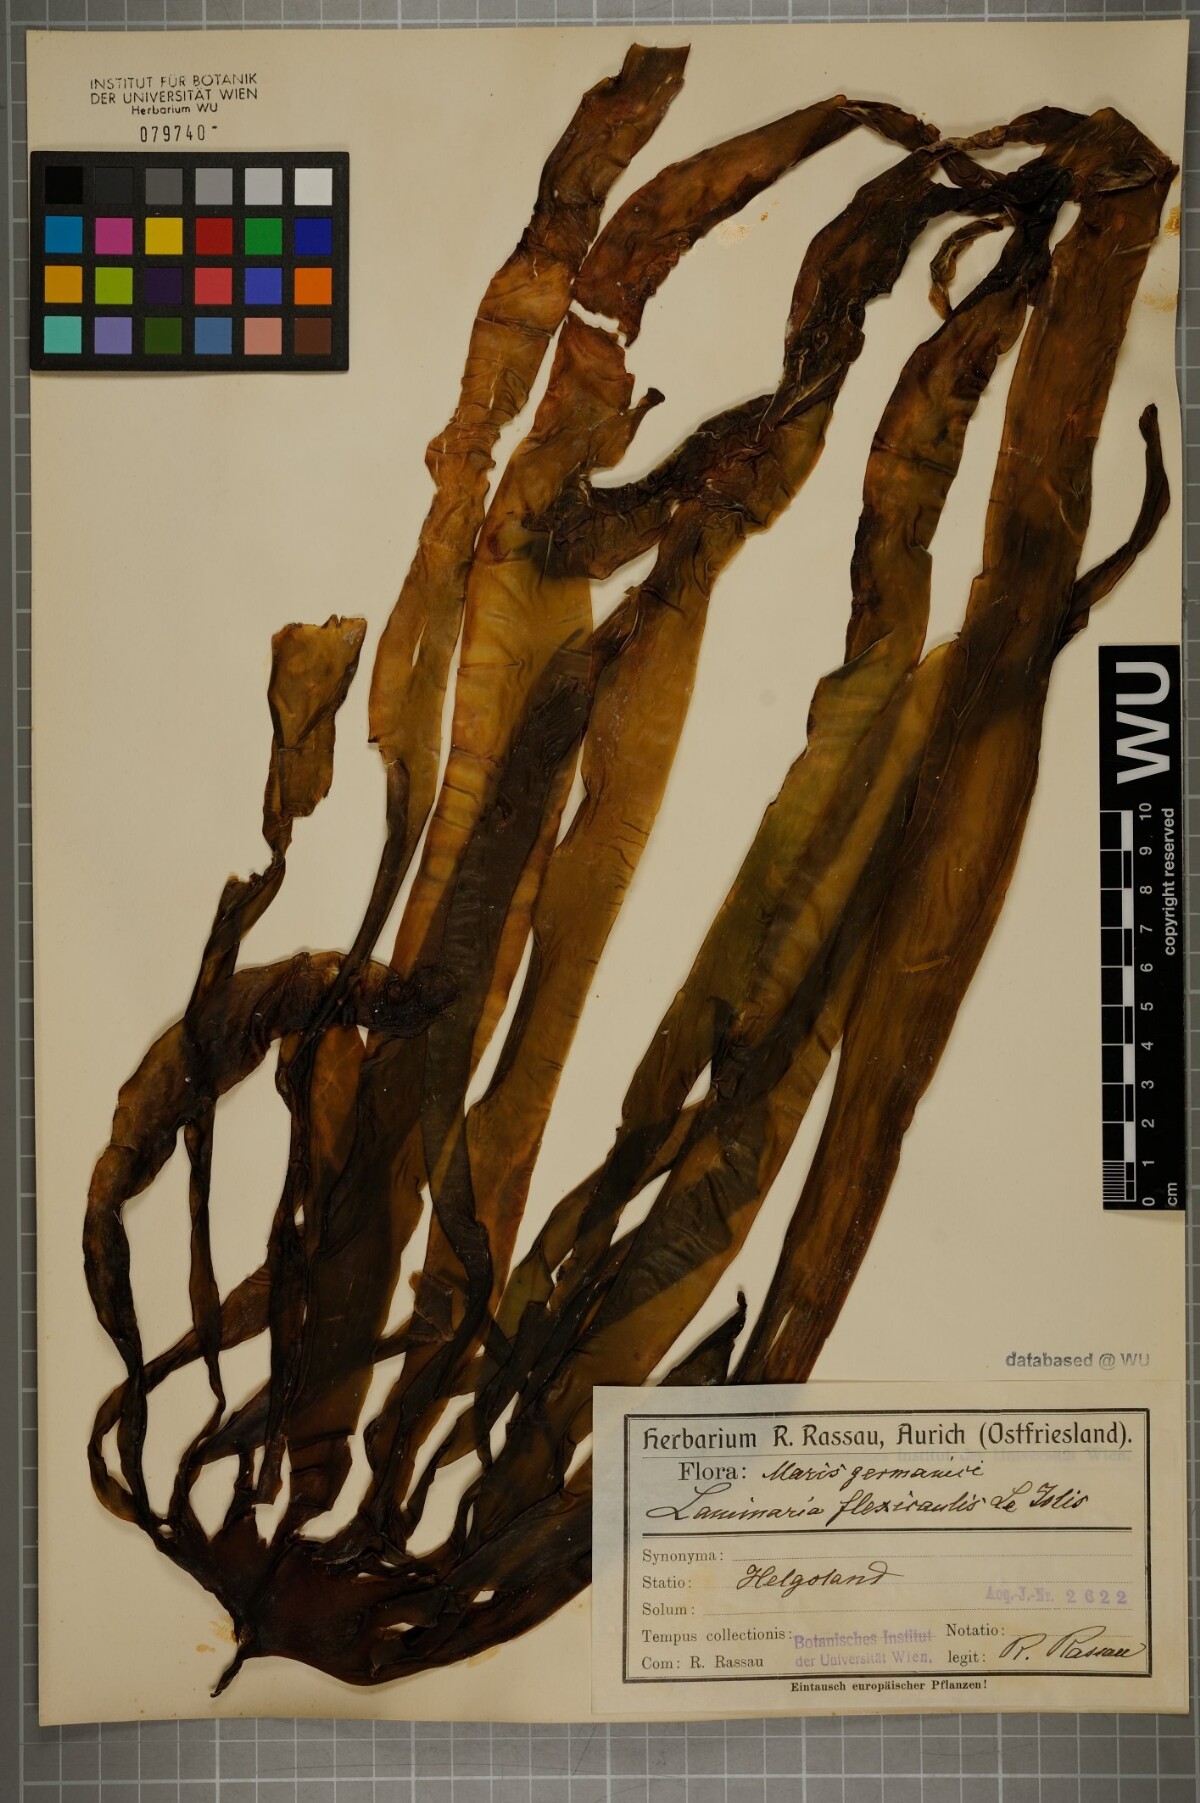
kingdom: Chromista
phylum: Ochrophyta
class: Phaeophyceae
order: Laminariales
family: Laminariaceae
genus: Laminaria
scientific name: Laminaria digitata
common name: Oarweed
